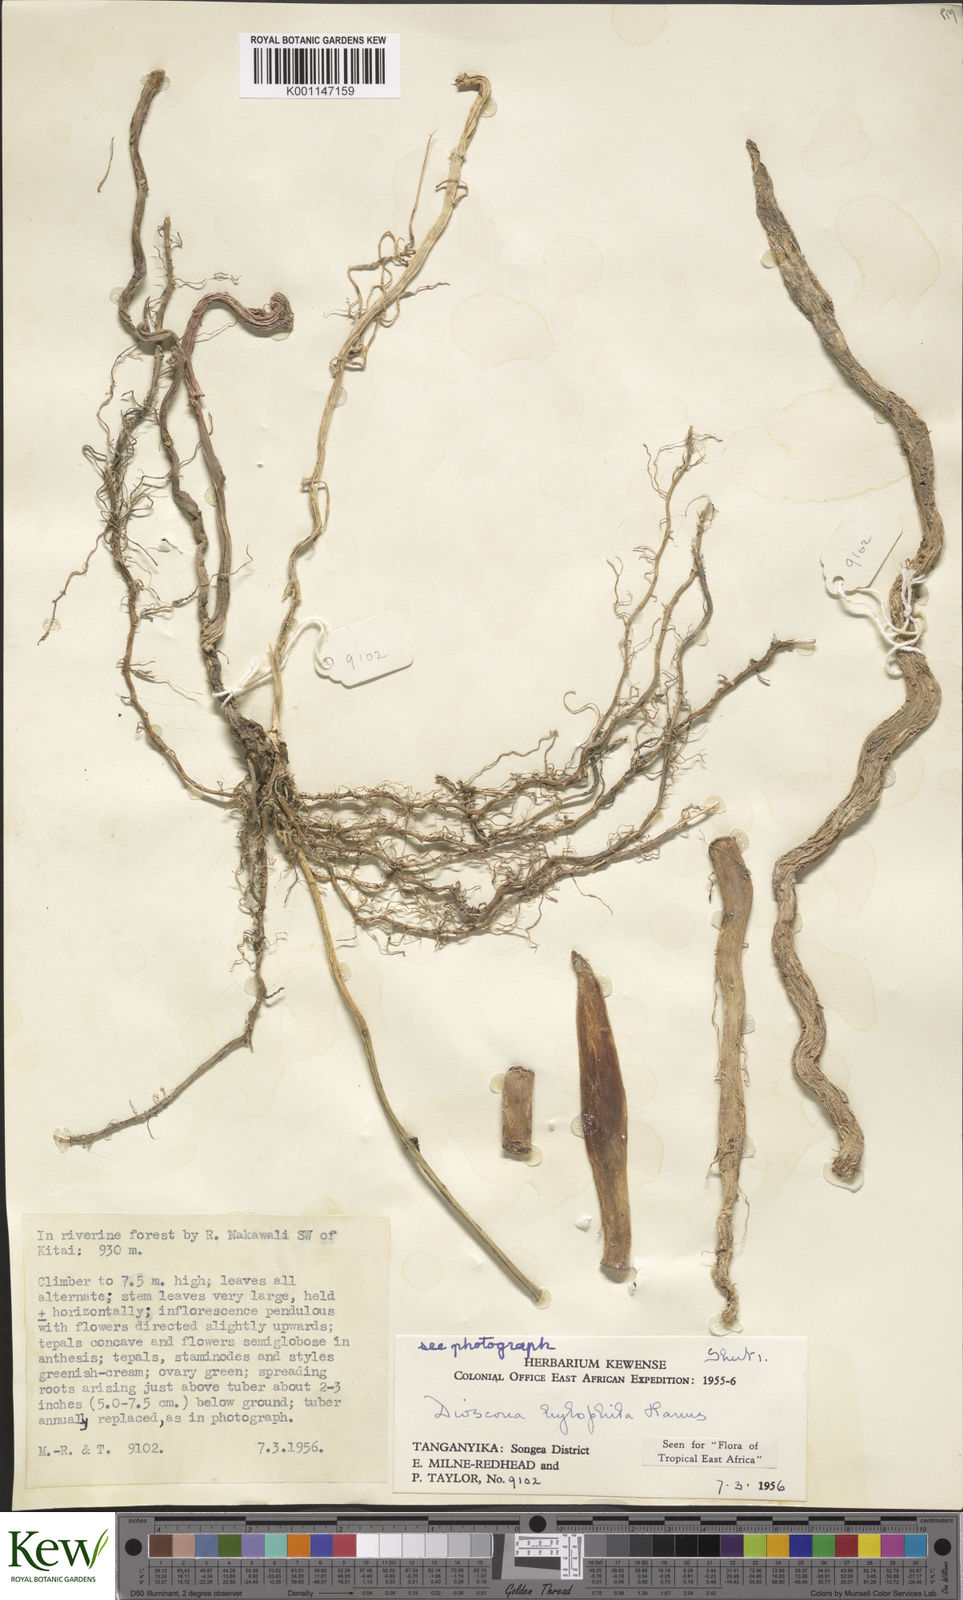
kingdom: Plantae
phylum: Tracheophyta
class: Liliopsida
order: Dioscoreales
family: Dioscoreaceae
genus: Dioscorea
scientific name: Dioscorea
